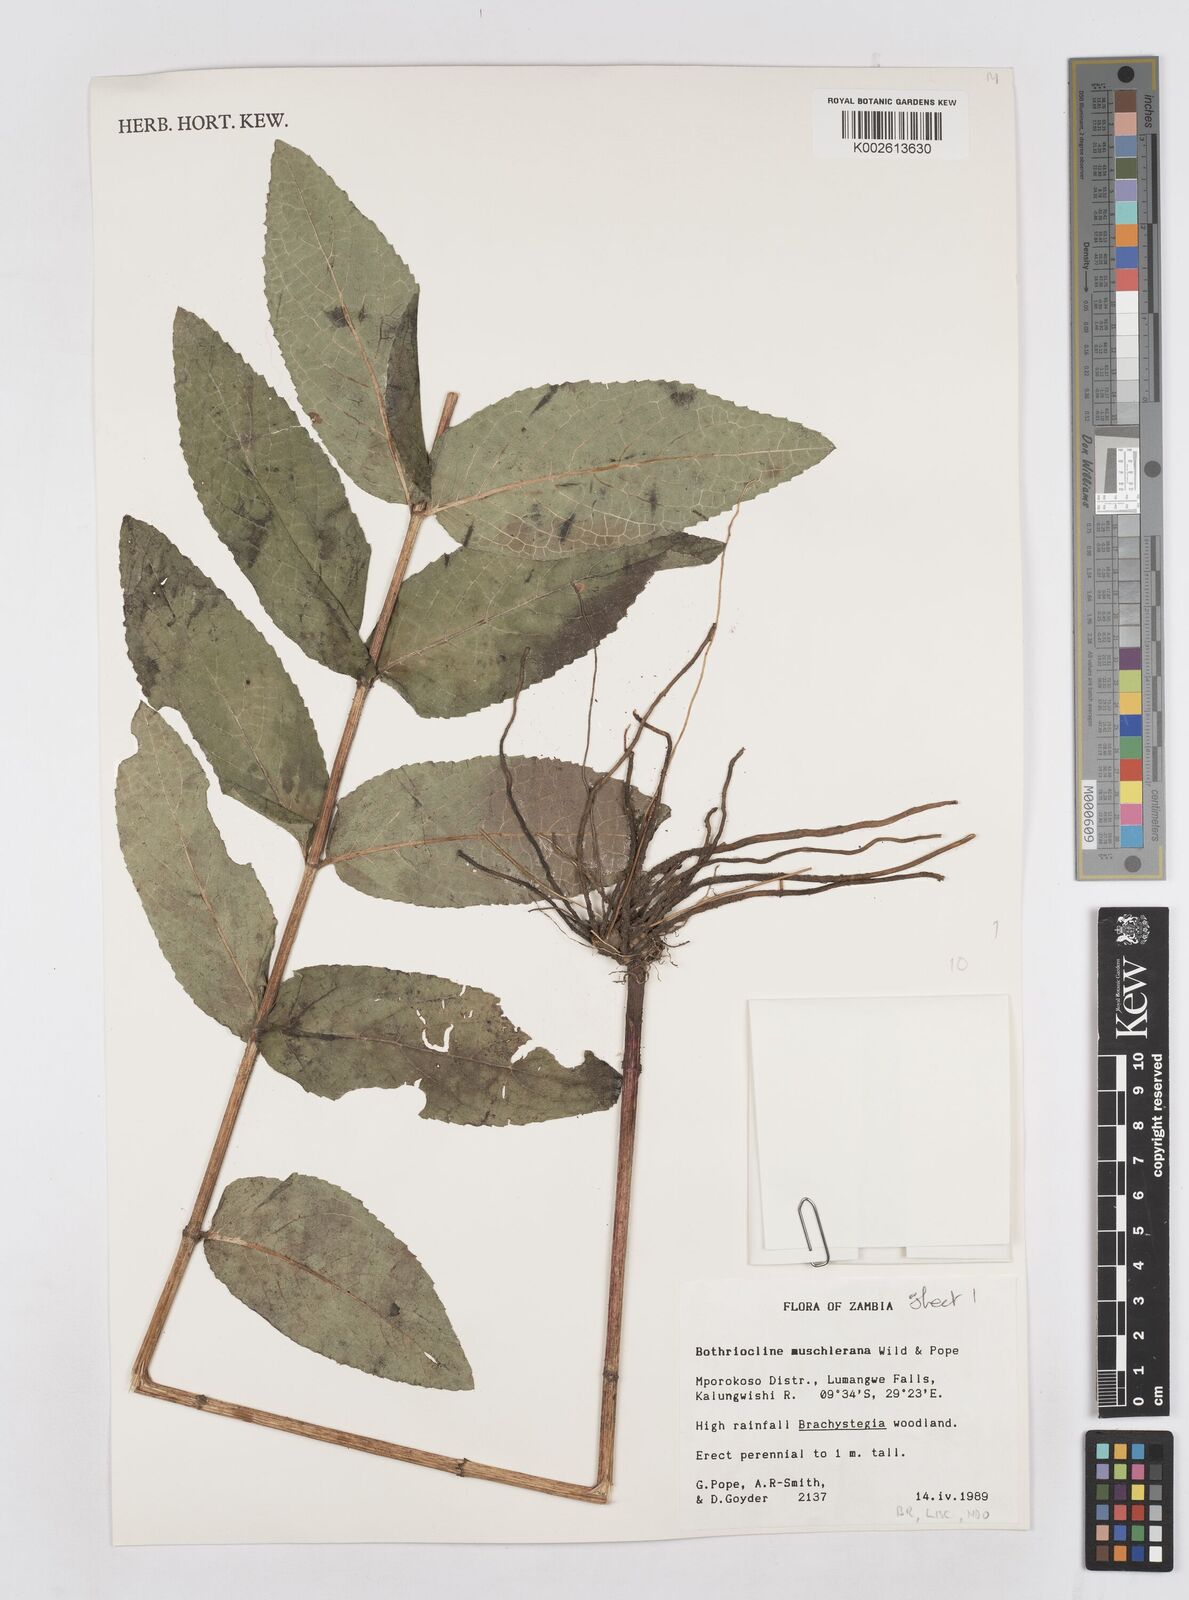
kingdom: Plantae
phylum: Tracheophyta
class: Magnoliopsida
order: Asterales
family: Asteraceae
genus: Bothriocline
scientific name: Bothriocline muschleriana
